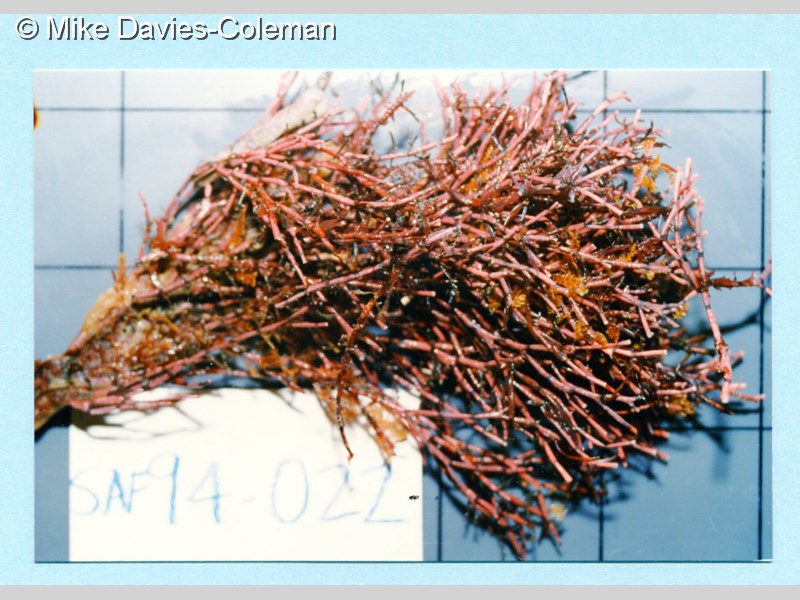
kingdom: Plantae
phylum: Rhodophyta
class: Florideophyceae
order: Corallinales
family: Corallinaceae
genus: Corallina
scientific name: Corallina Amphiroa ephedraea
